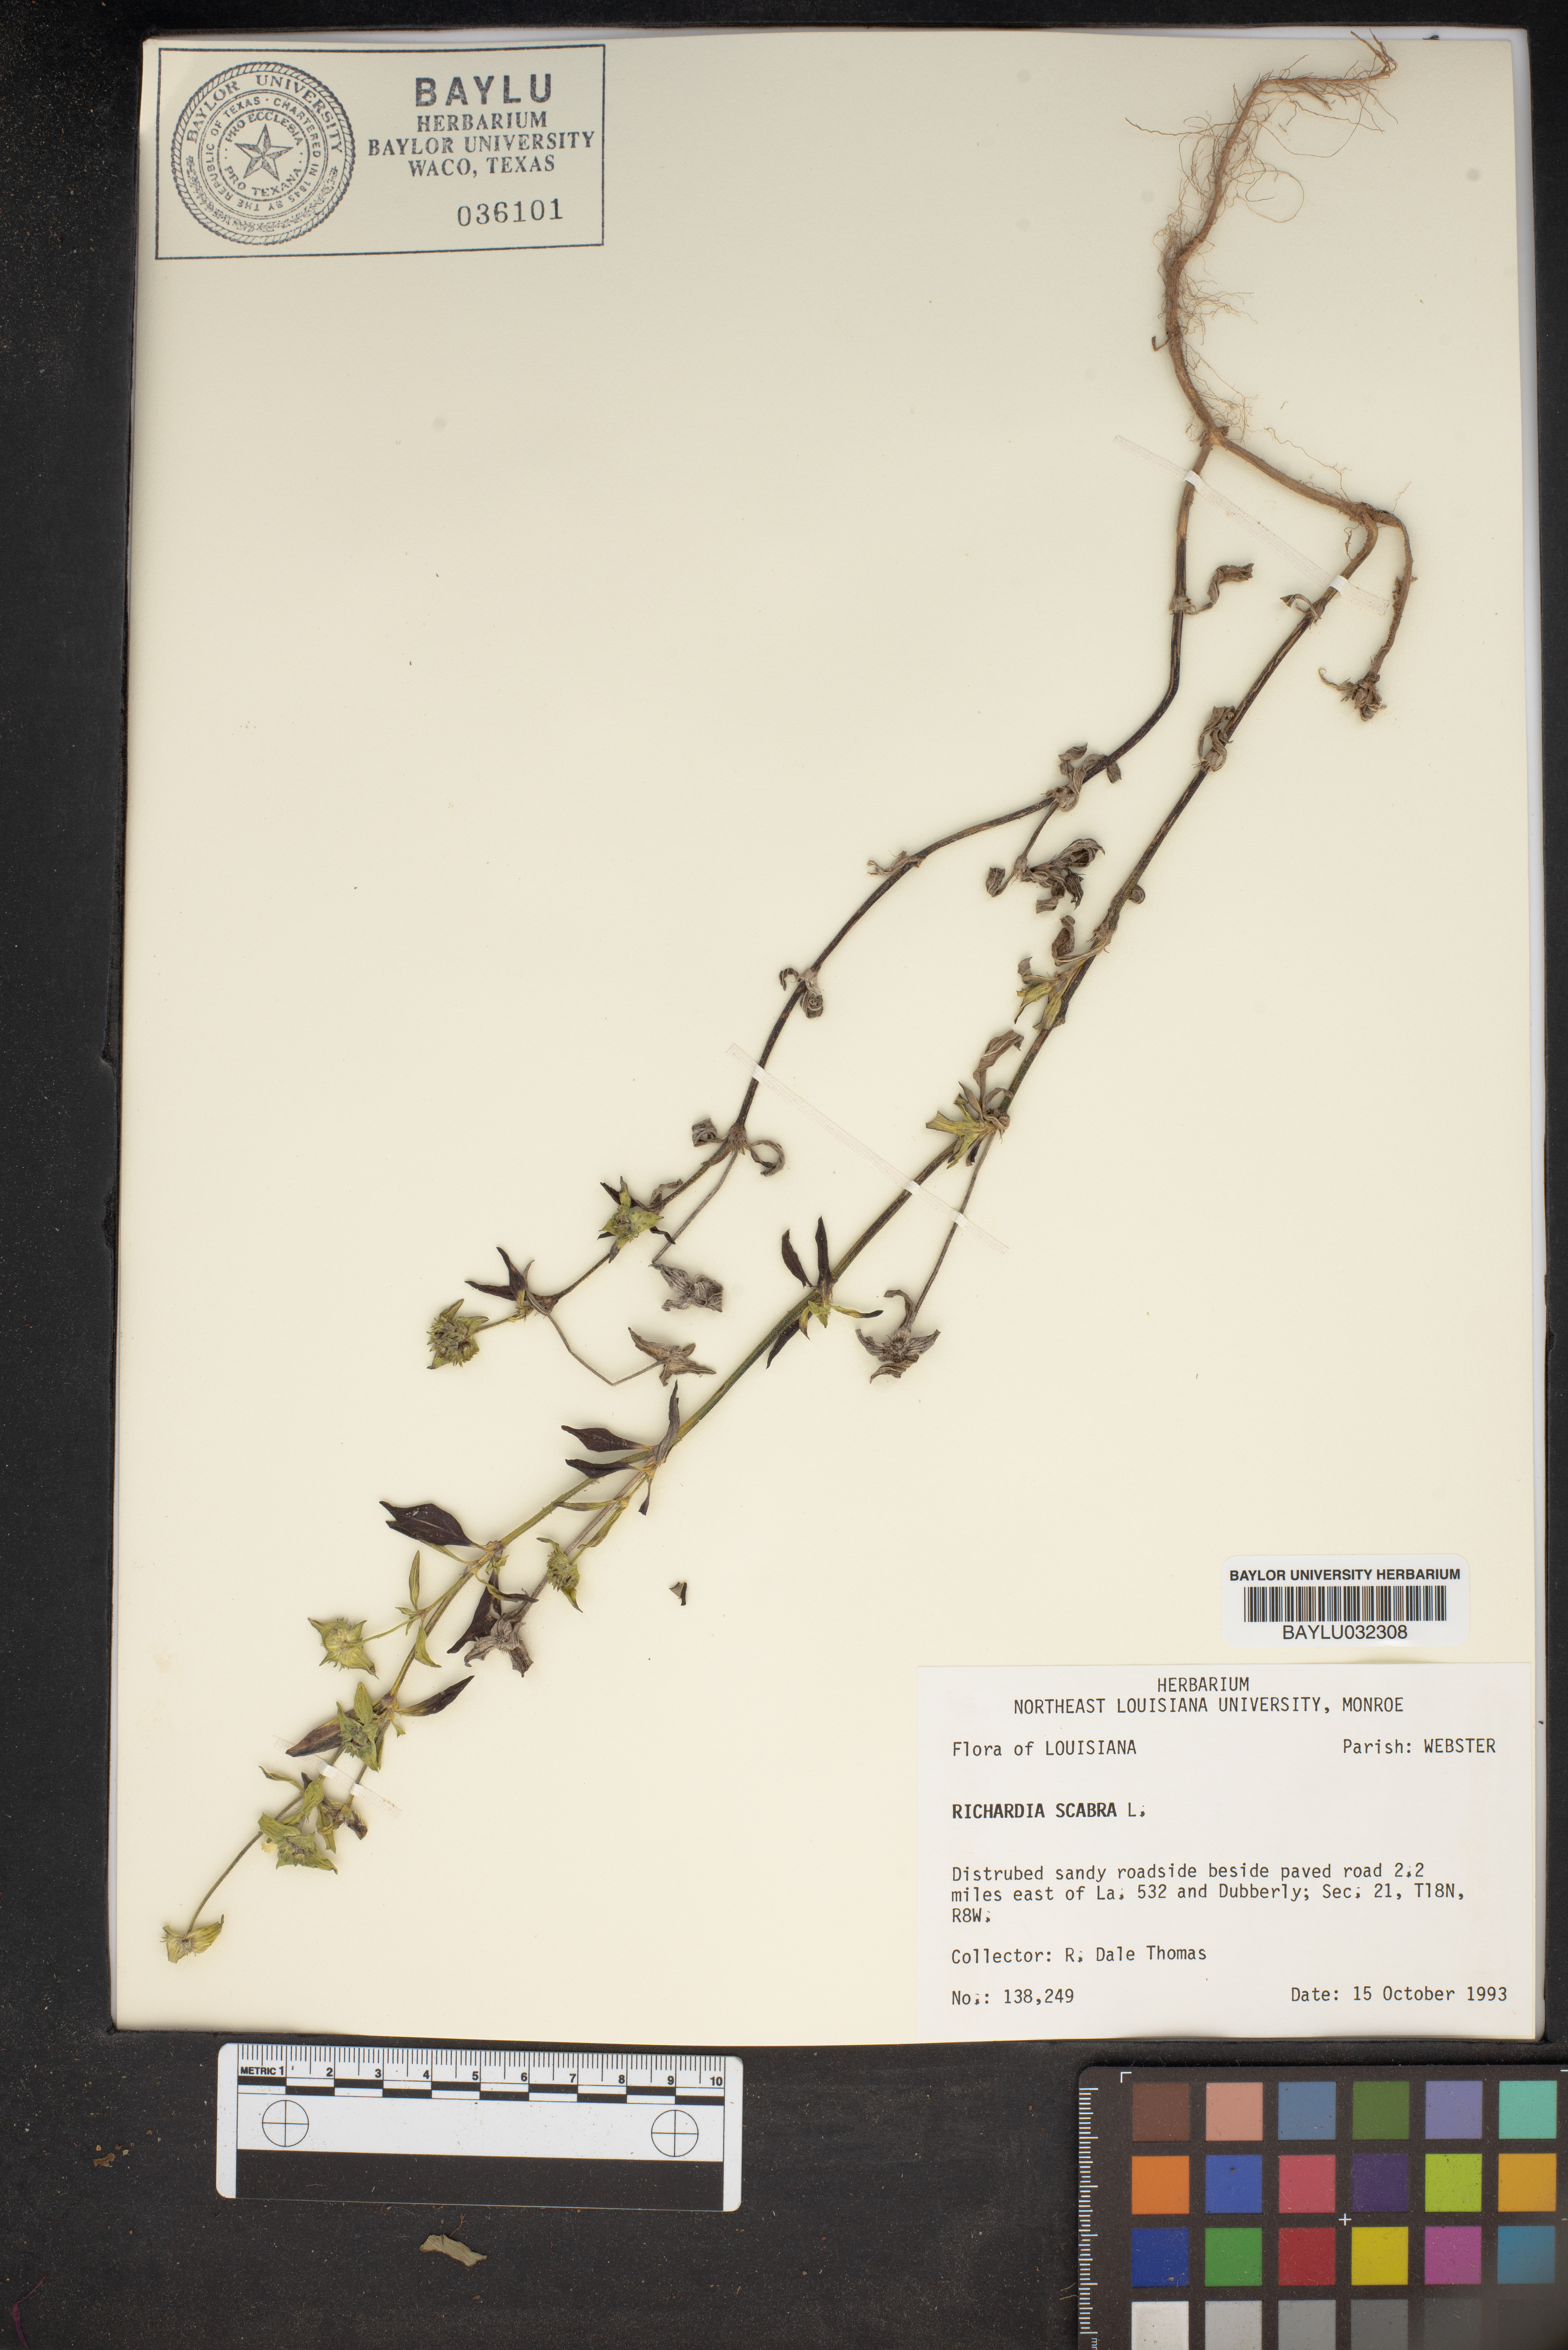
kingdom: Plantae
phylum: Tracheophyta
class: Magnoliopsida
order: Gentianales
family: Rubiaceae
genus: Richardia
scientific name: Richardia scabra
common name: Rough mexican clover
